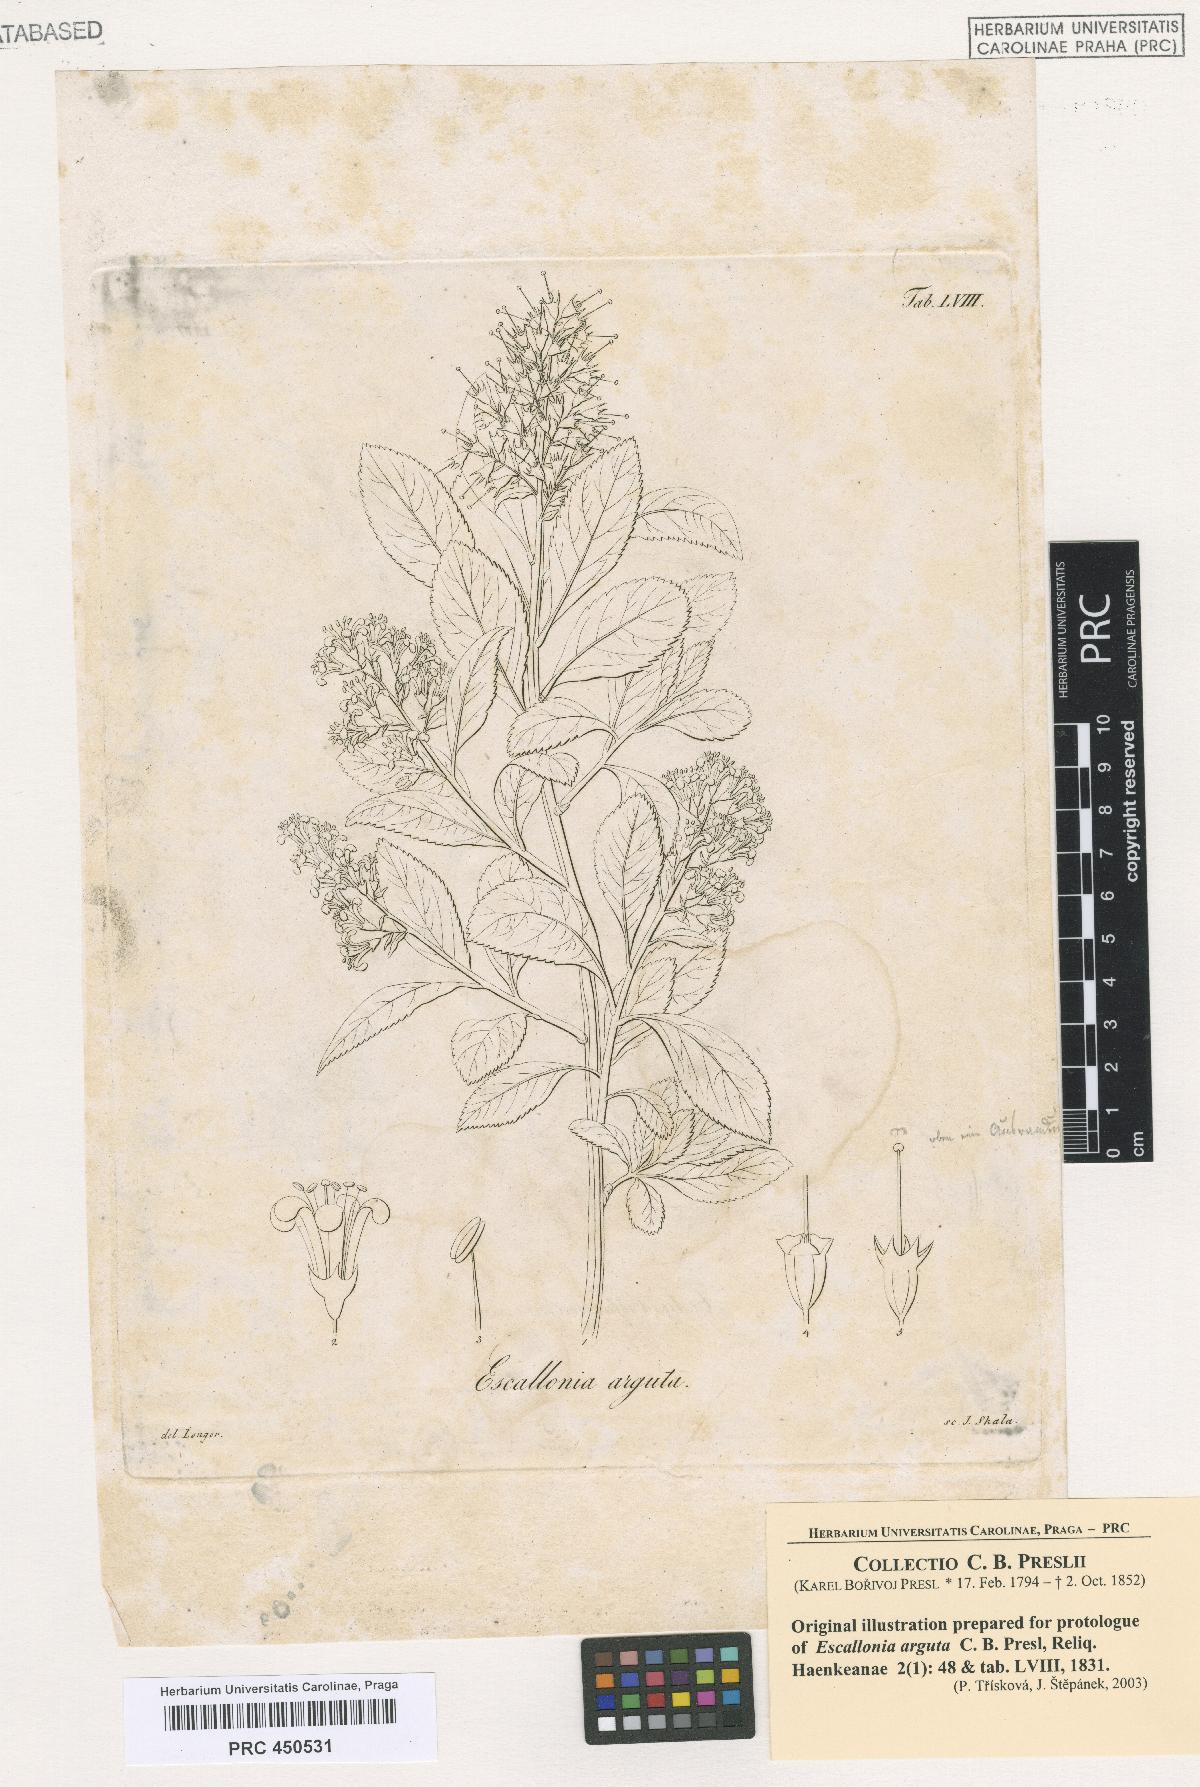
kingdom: Plantae
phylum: Tracheophyta
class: Magnoliopsida
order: Escalloniales
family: Escalloniaceae
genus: Escallonia
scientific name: Escallonia myrtoidea
